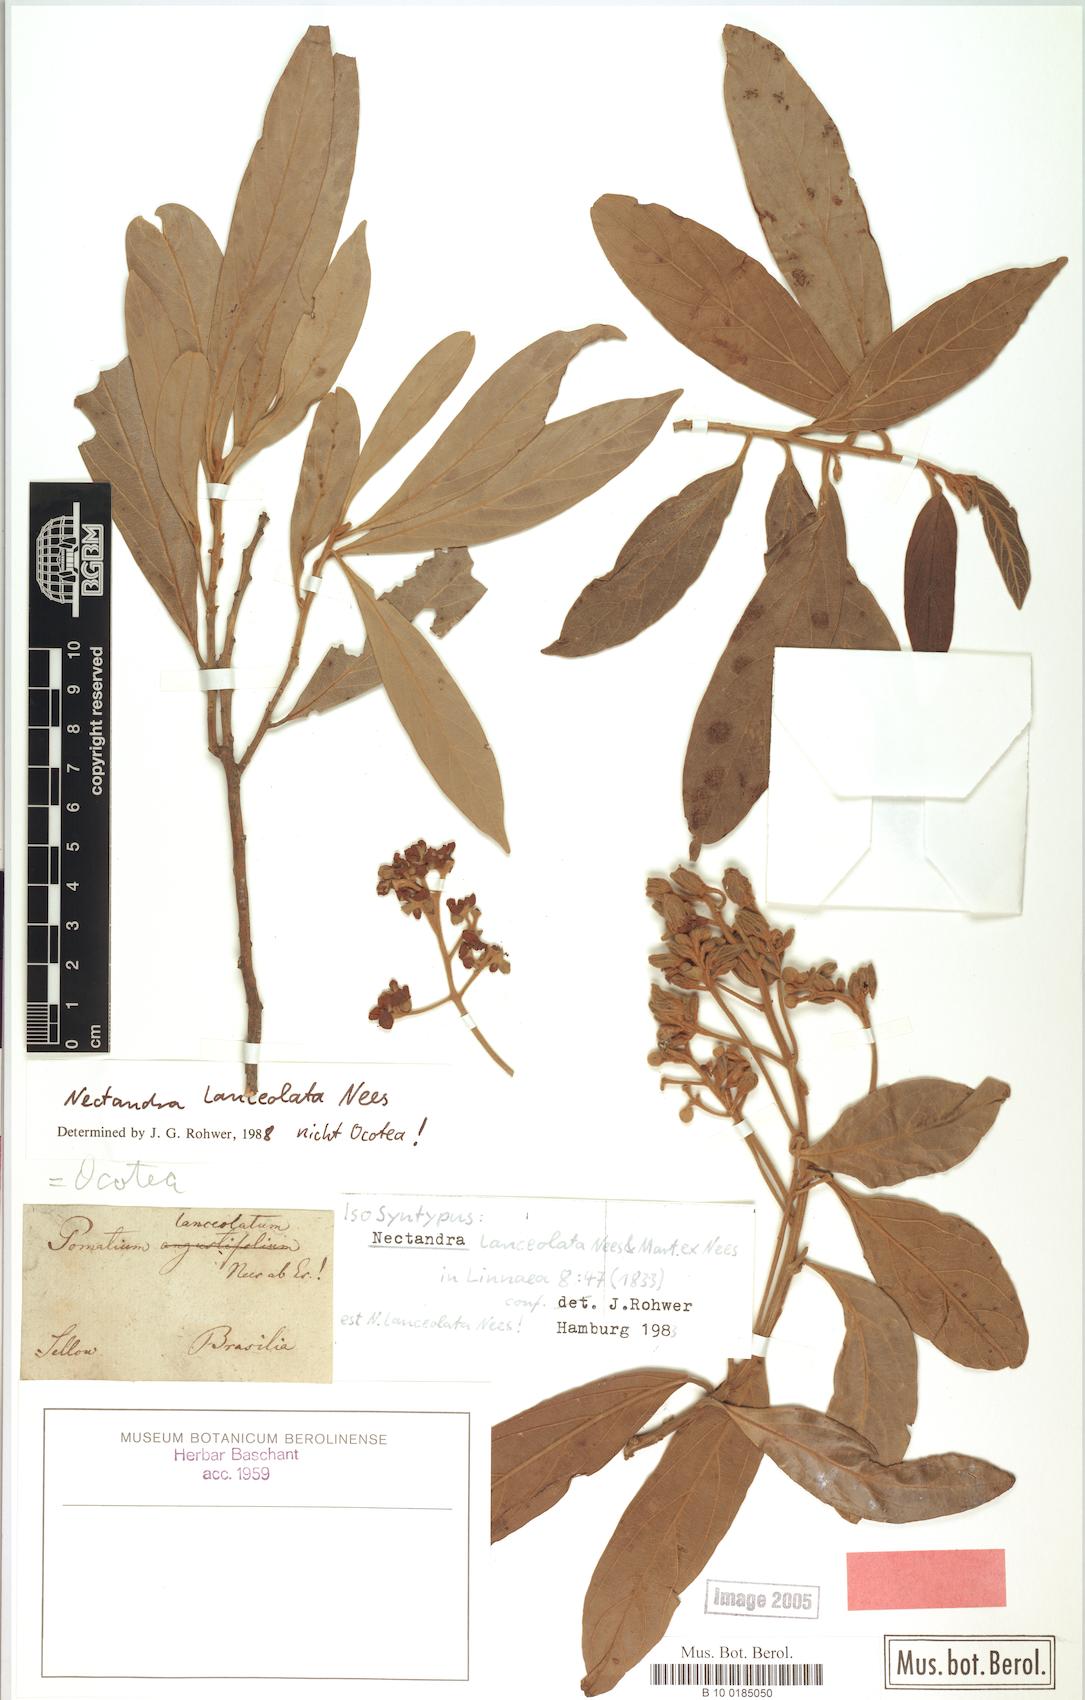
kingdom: Plantae
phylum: Tracheophyta
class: Magnoliopsida
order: Laurales
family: Lauraceae
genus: Nectandra
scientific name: Nectandra lanceolata
